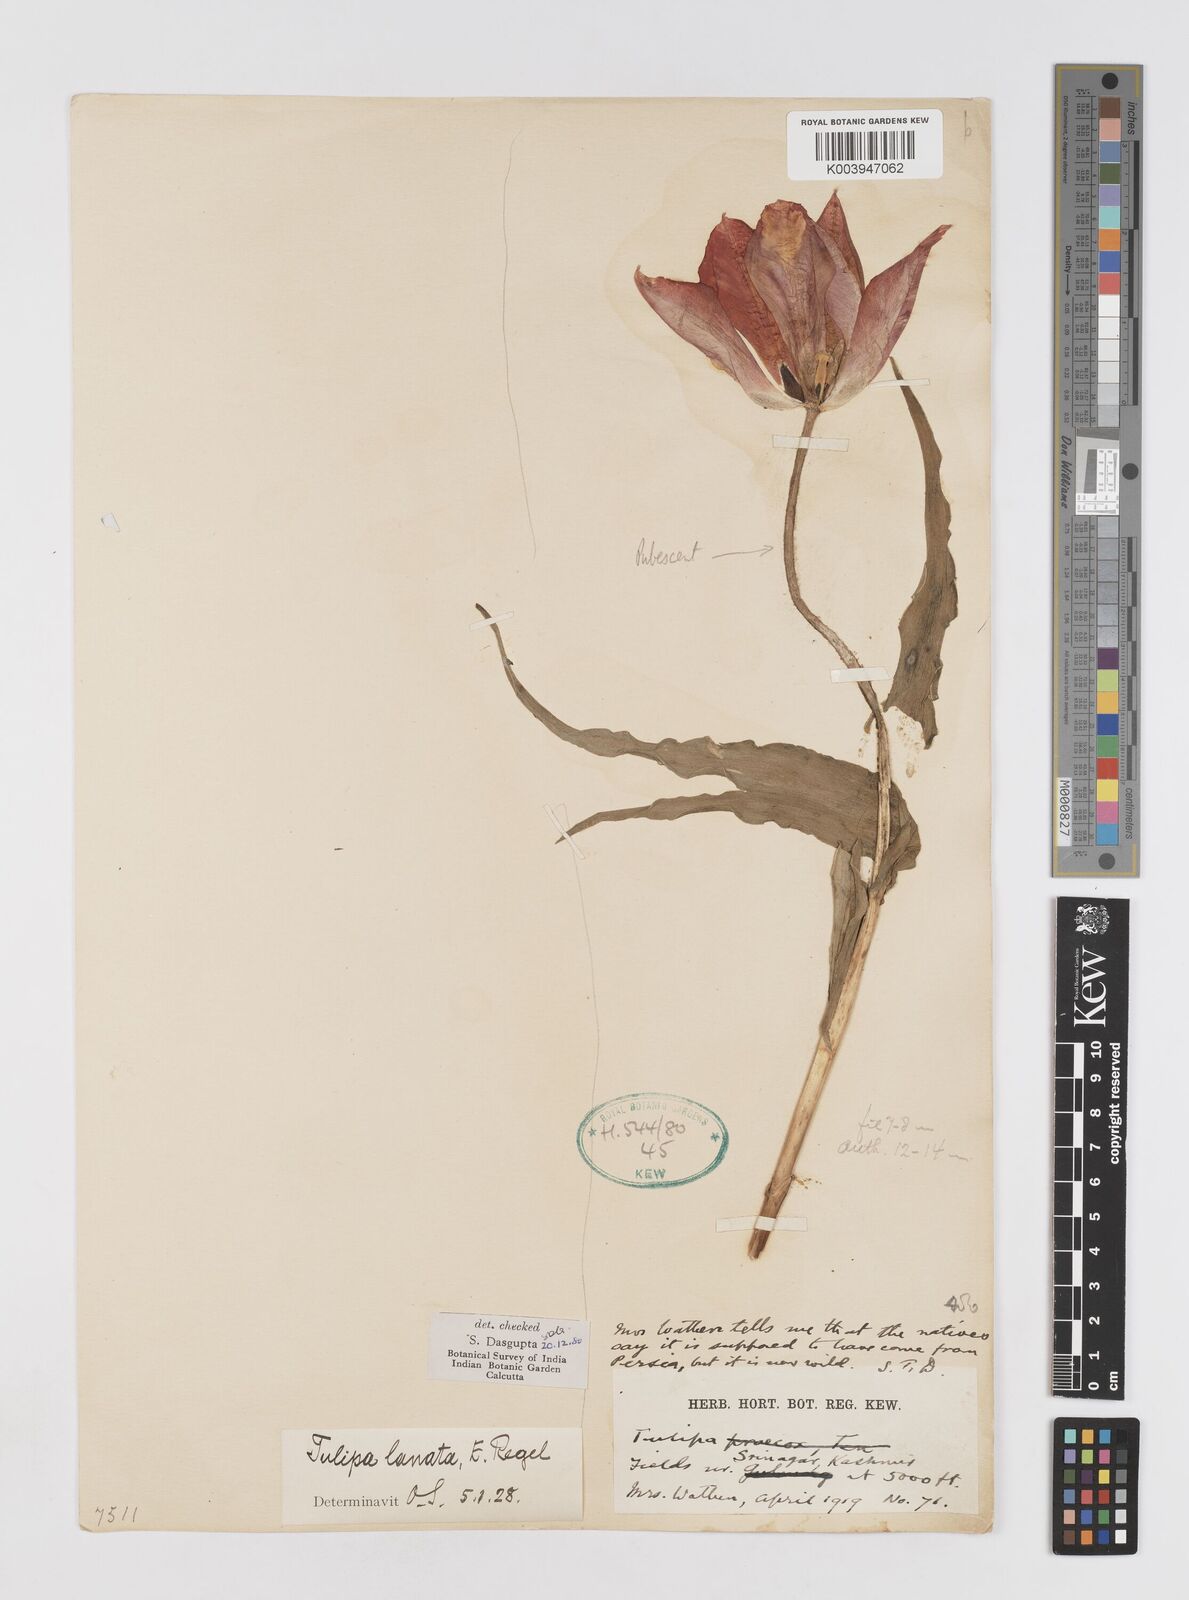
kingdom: Plantae
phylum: Tracheophyta
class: Liliopsida
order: Liliales
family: Liliaceae
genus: Tulipa
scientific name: Tulipa lanata
